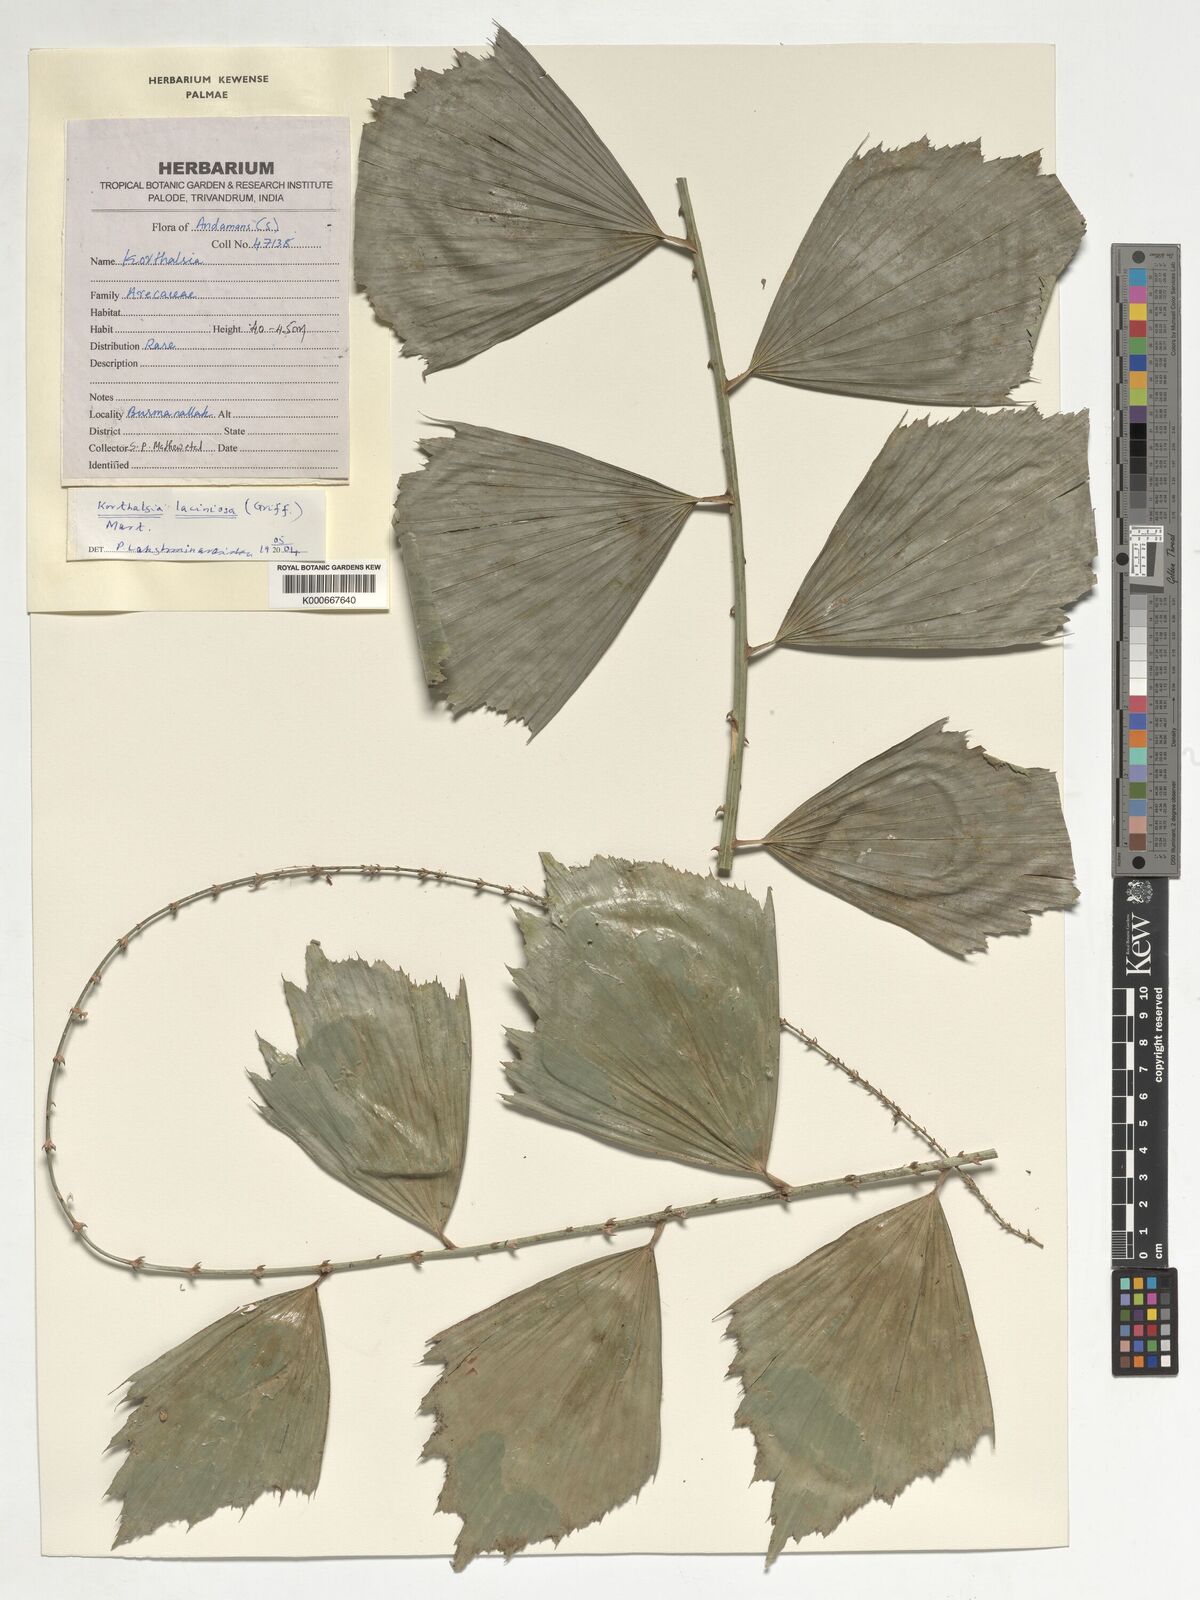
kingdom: Plantae
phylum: Tracheophyta
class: Liliopsida
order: Arecales
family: Arecaceae
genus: Korthalsia
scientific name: Korthalsia laciniosa
